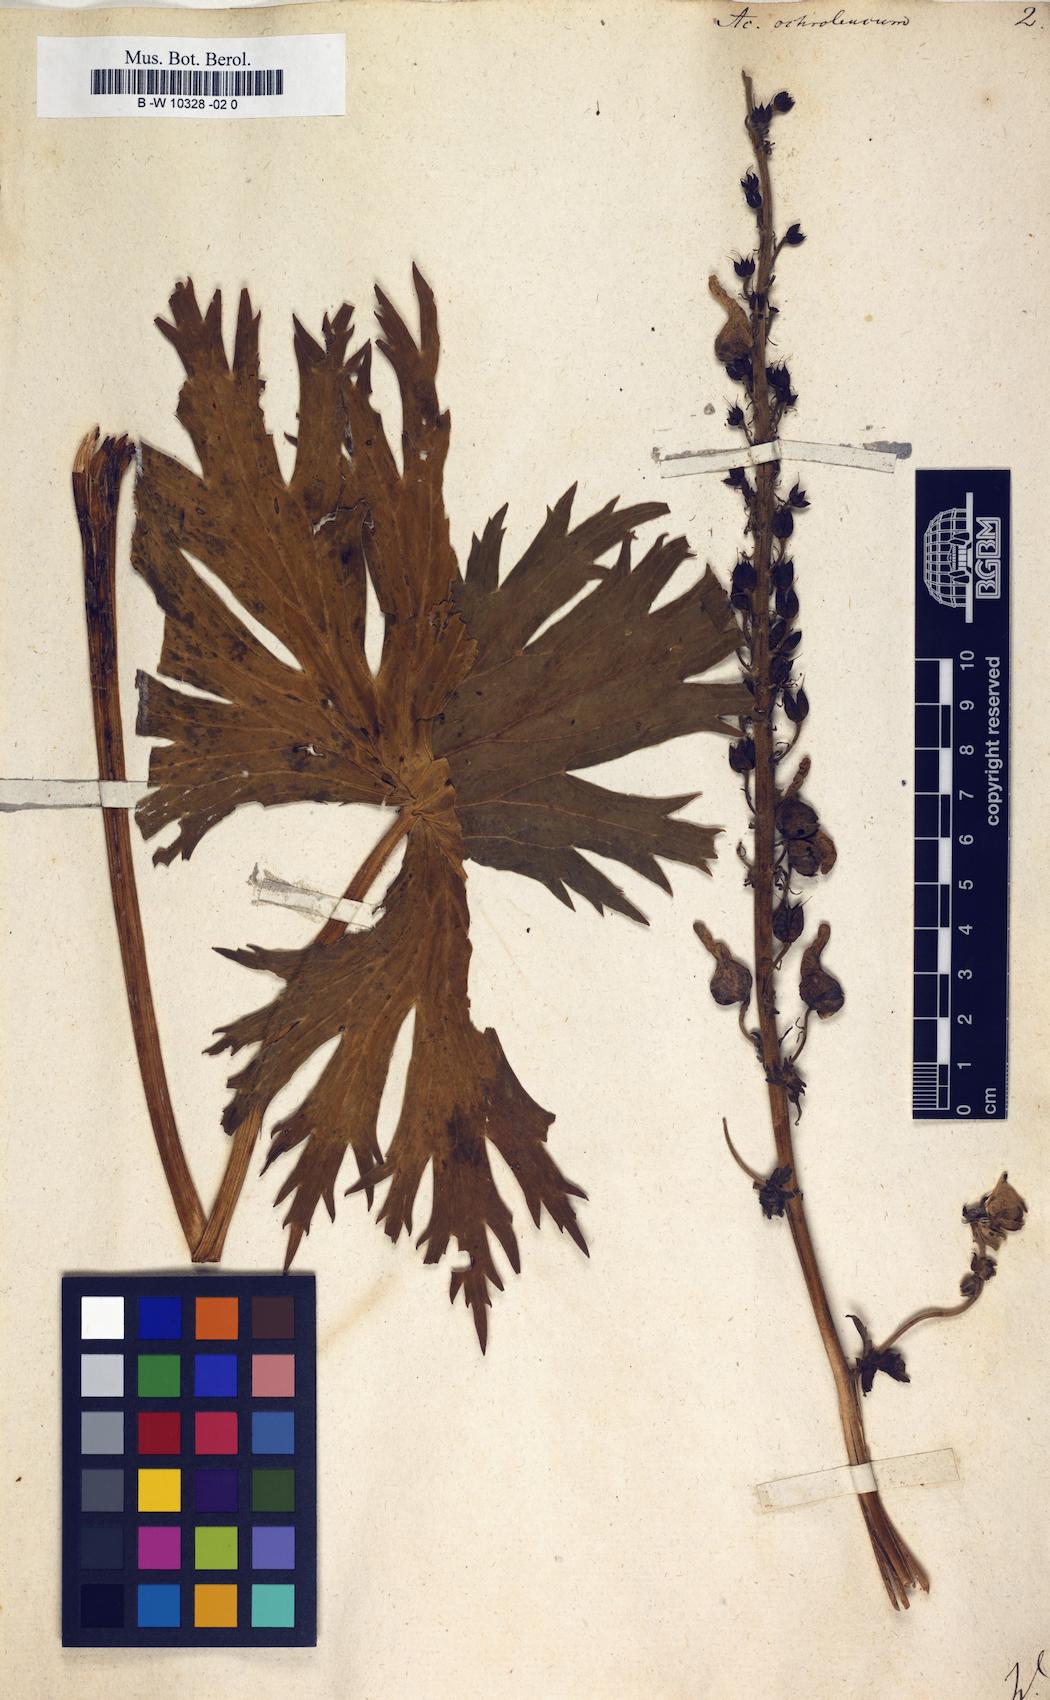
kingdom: Plantae
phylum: Tracheophyta
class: Magnoliopsida
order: Ranunculales
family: Ranunculaceae
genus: Aconitum
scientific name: Aconitum orientale
